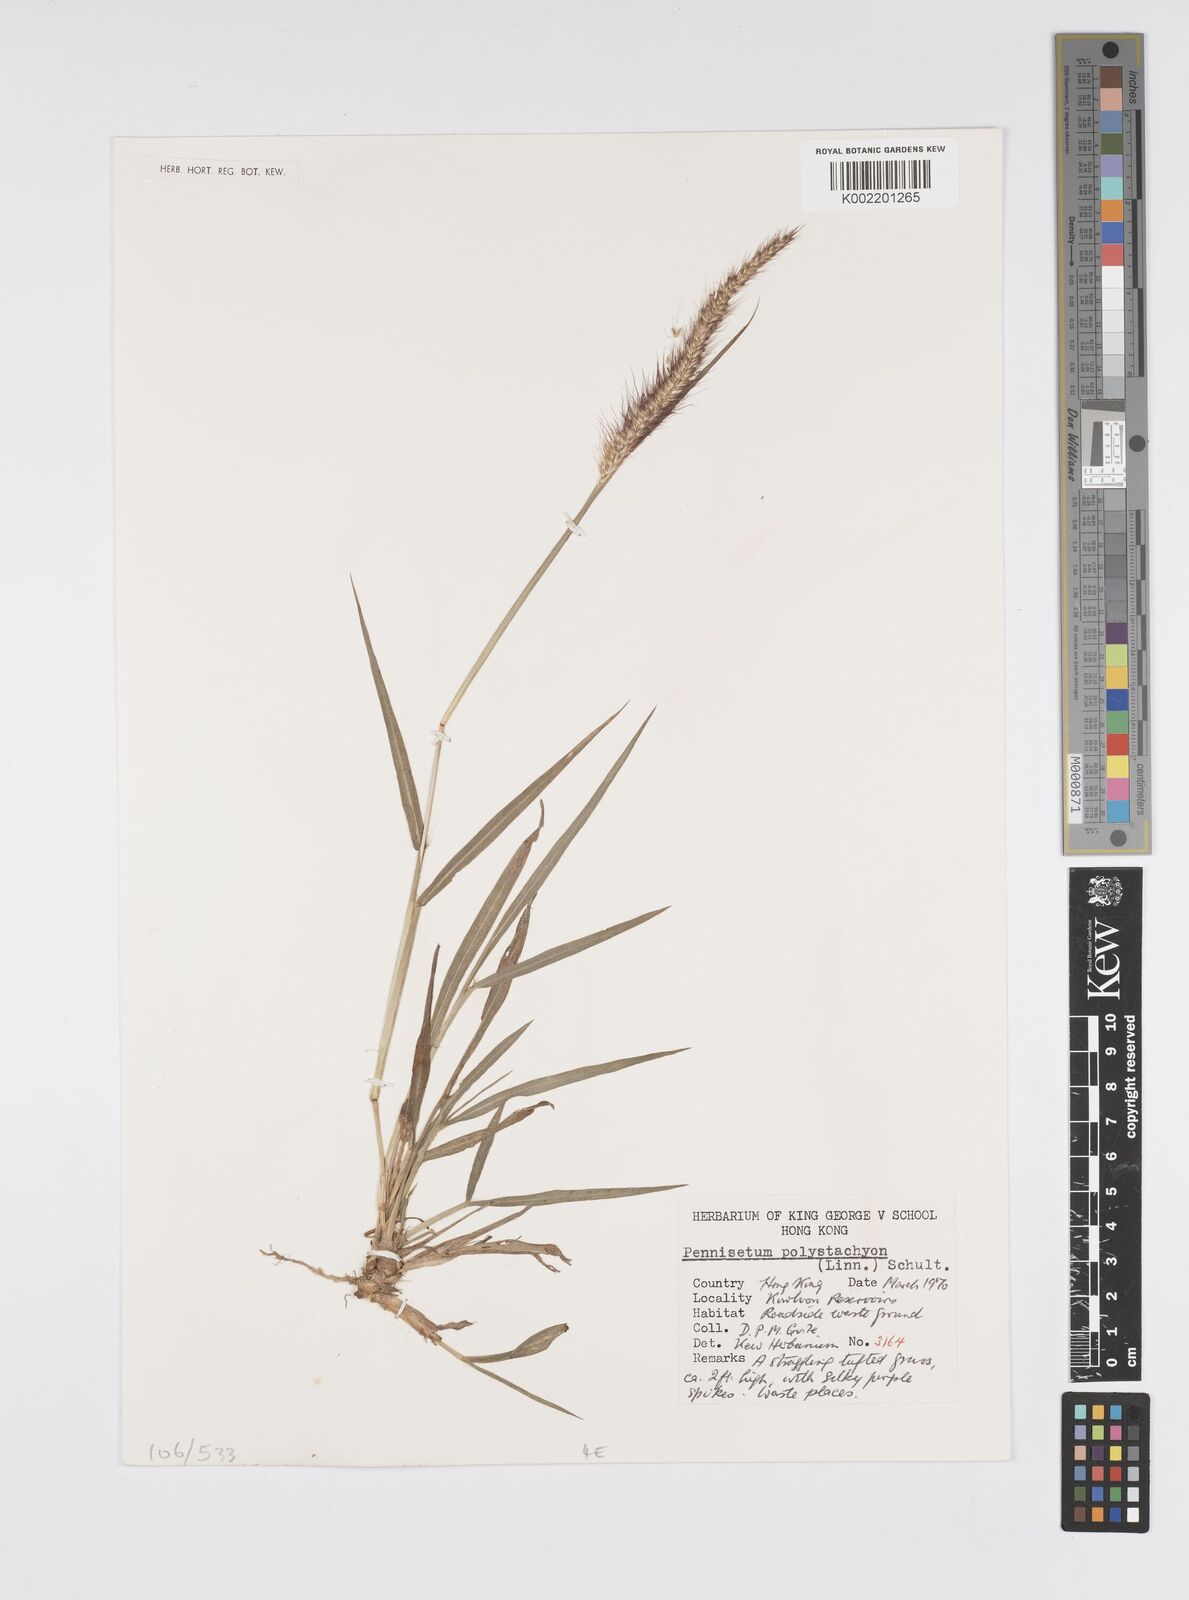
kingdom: Plantae
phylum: Tracheophyta
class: Liliopsida
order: Poales
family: Poaceae
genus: Setaria
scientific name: Setaria parviflora
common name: Knotroot bristle-grass
